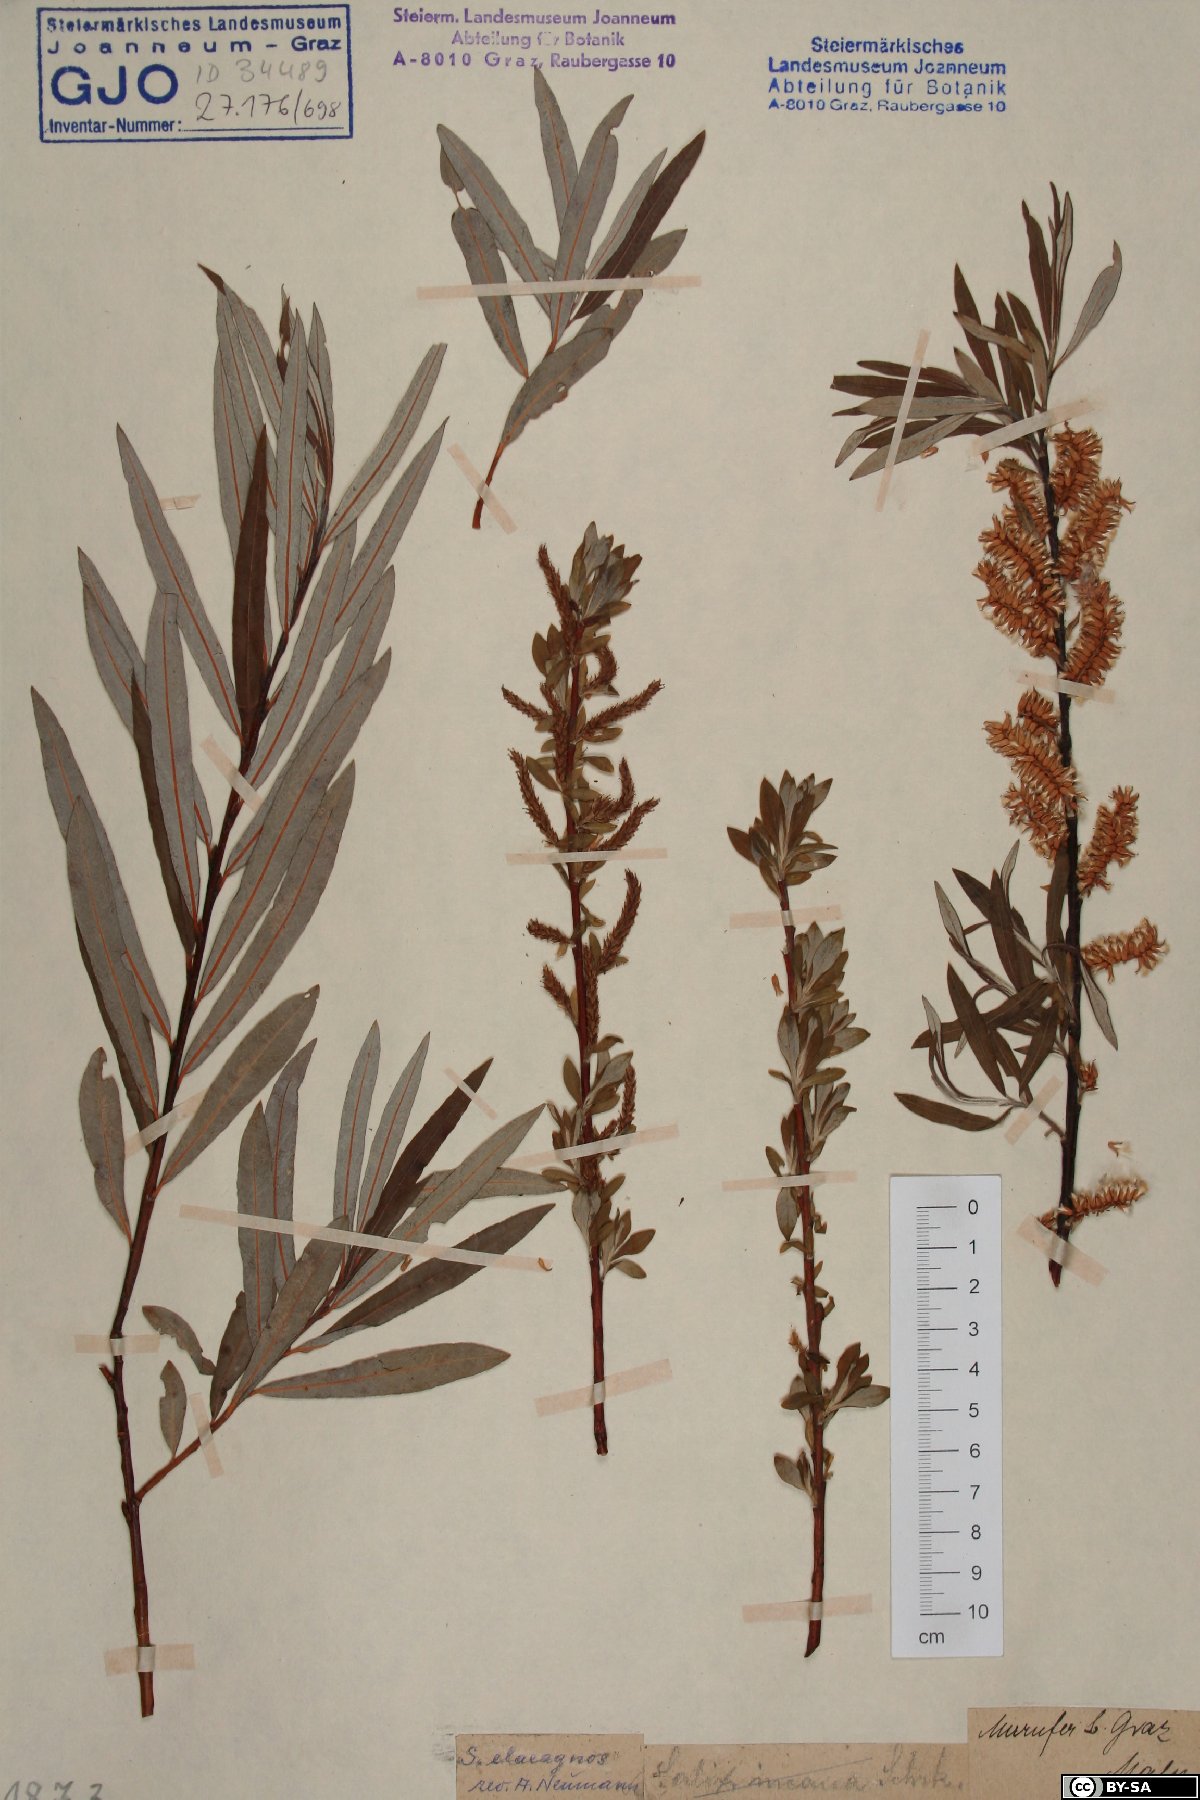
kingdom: Plantae
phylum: Tracheophyta
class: Magnoliopsida
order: Malpighiales
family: Salicaceae
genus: Salix
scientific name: Salix eleagnos
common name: Elaeagnus willow
